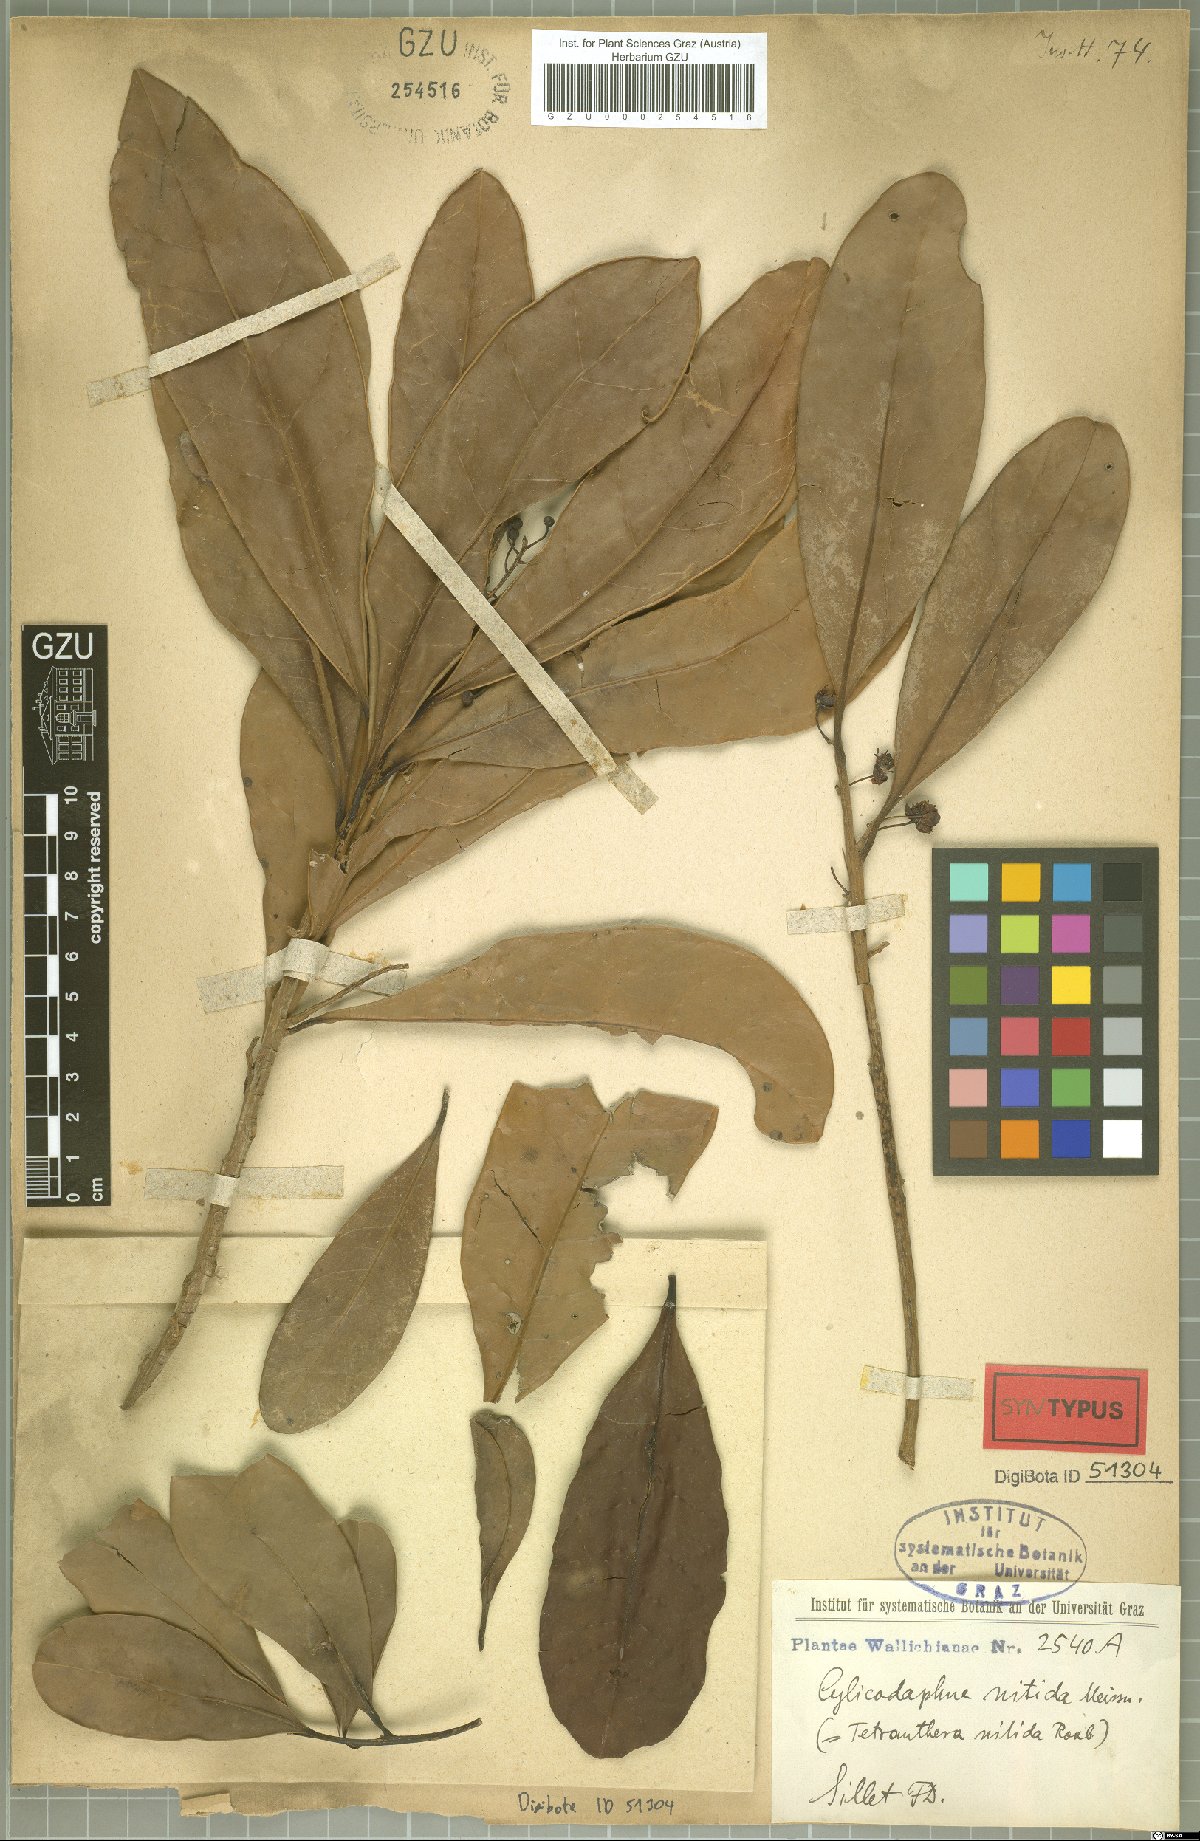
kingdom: Plantae
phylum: Tracheophyta
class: Magnoliopsida
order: Laurales
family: Lauraceae
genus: Litsea
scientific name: Litsea nitida
